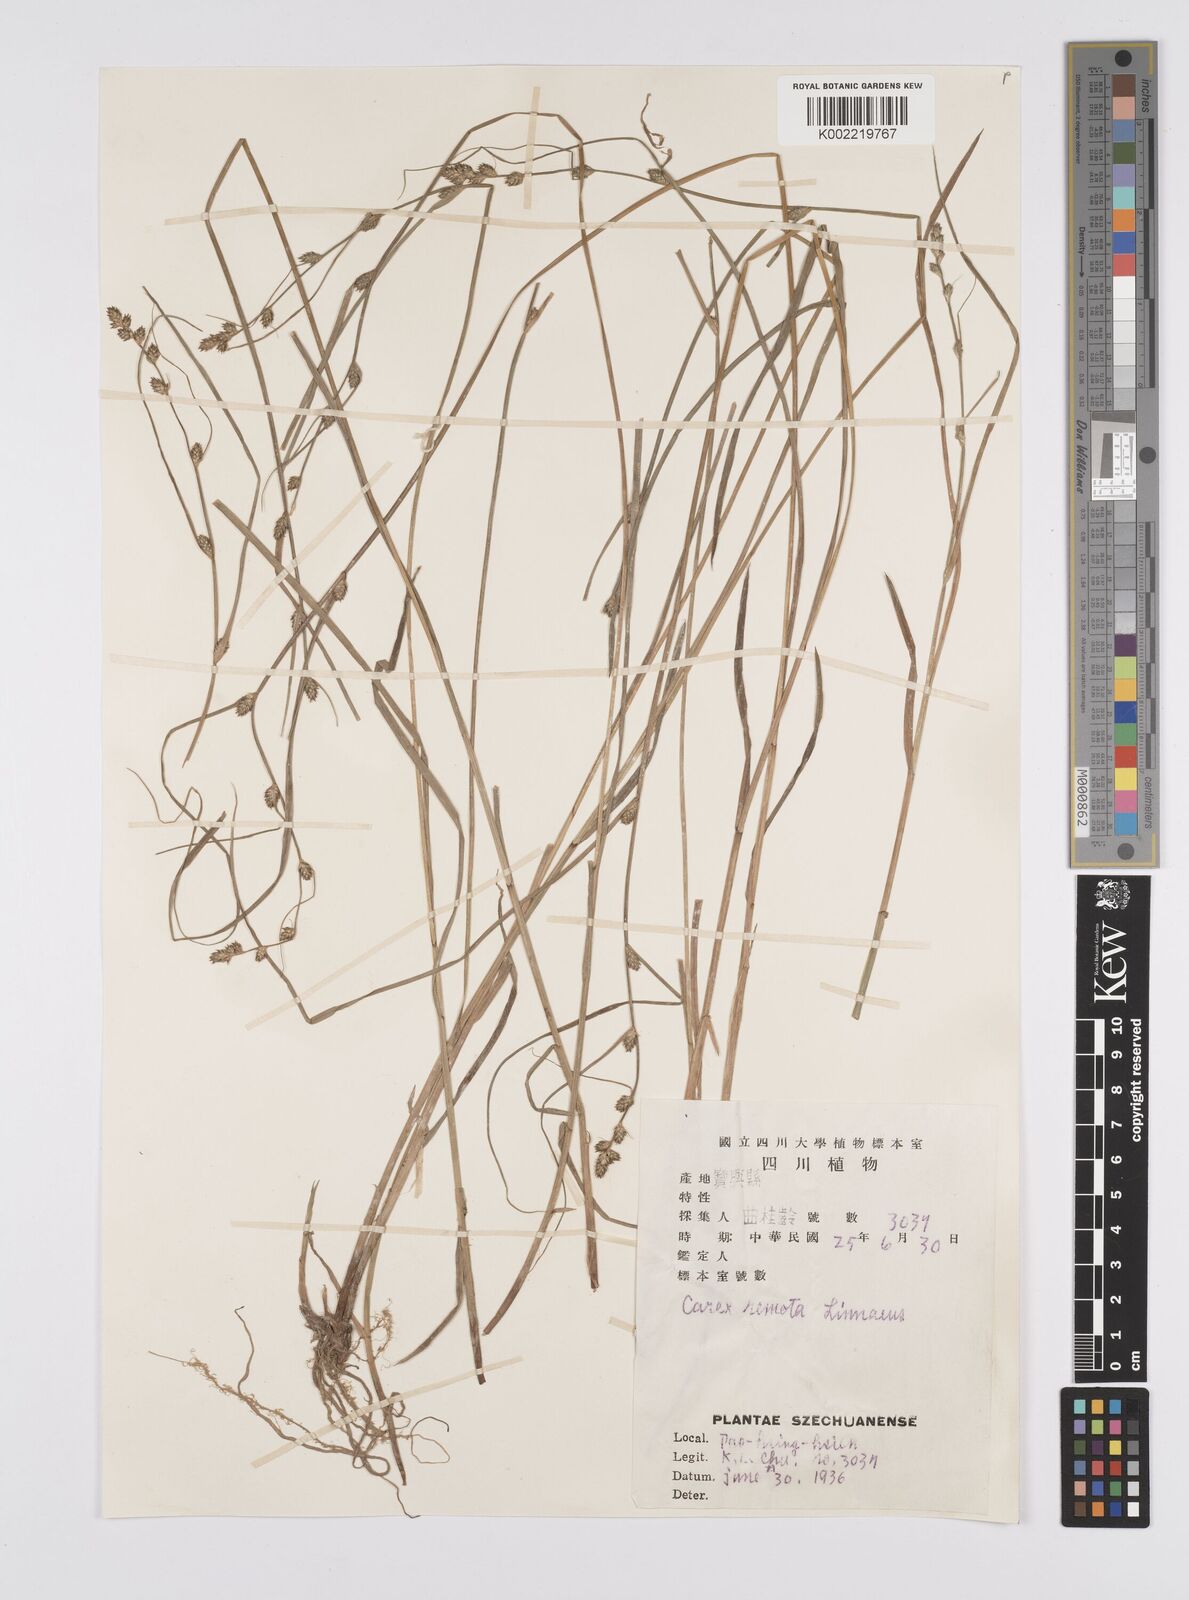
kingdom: Plantae
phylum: Tracheophyta
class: Liliopsida
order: Poales
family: Cyperaceae
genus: Carex
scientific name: Carex remota
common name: Remote sedge
